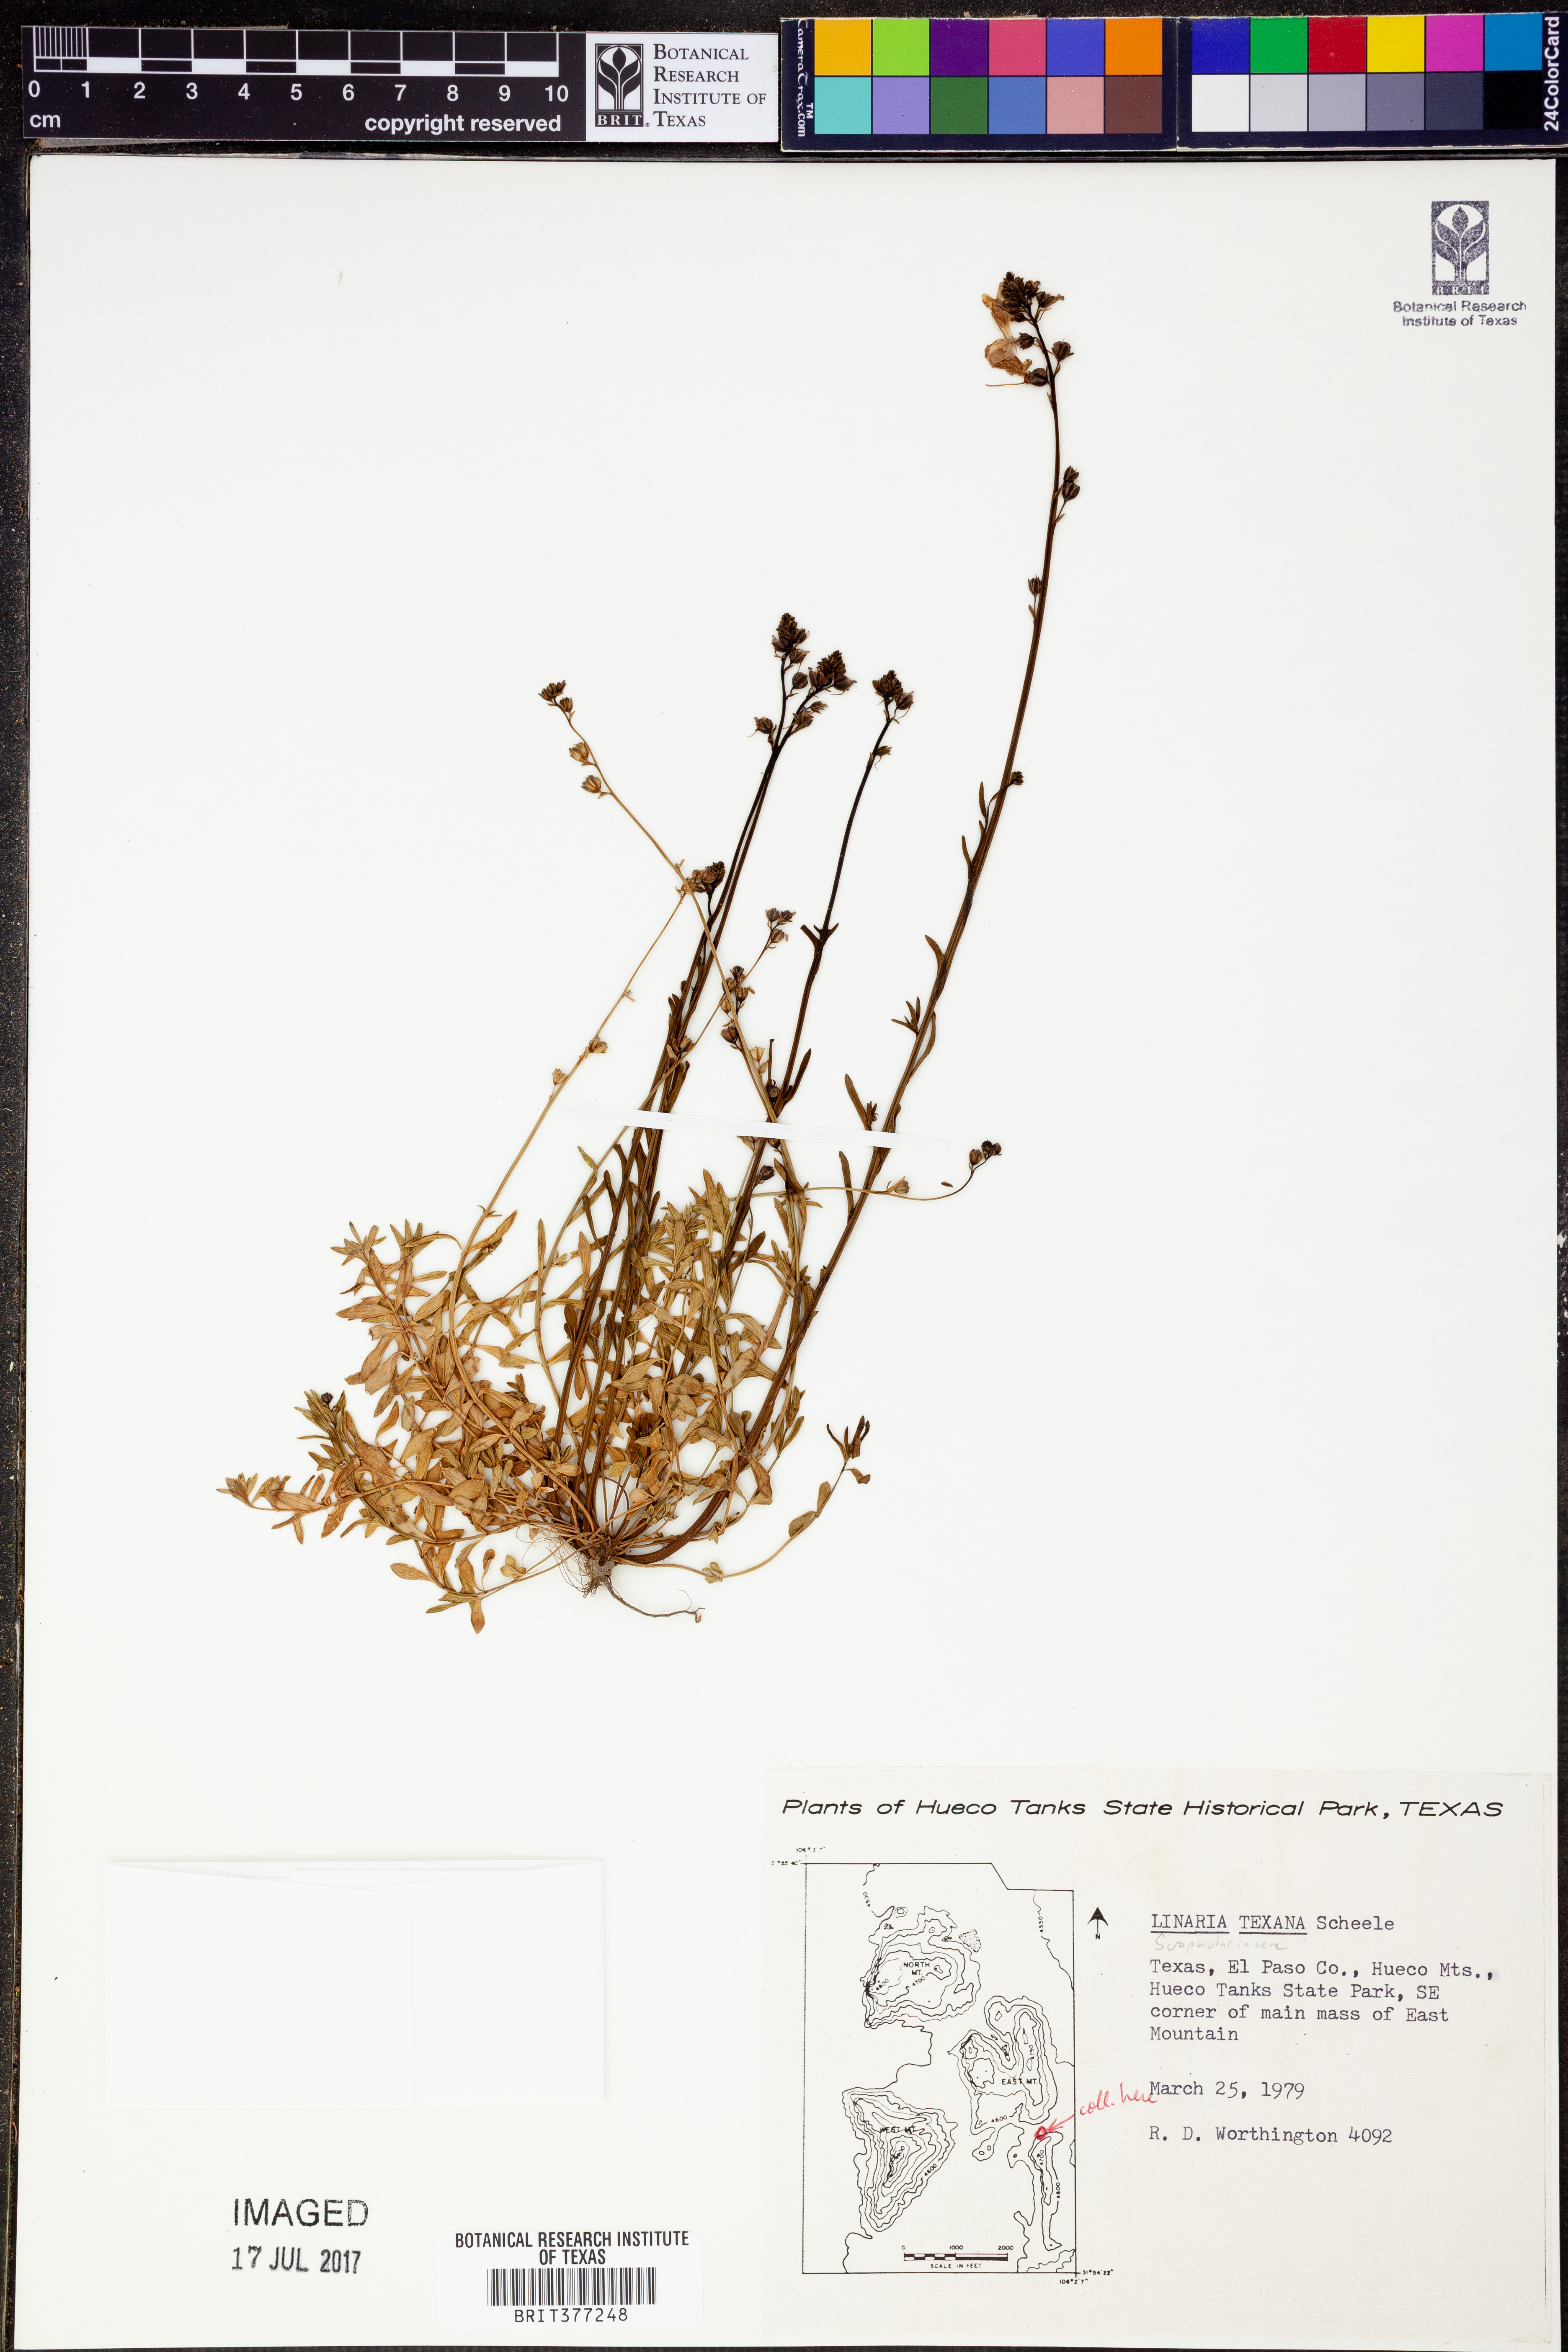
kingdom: Plantae
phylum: Tracheophyta
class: Magnoliopsida
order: Lamiales
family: Plantaginaceae
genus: Nuttallanthus
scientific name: Nuttallanthus texanus
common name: Texas toadflax
